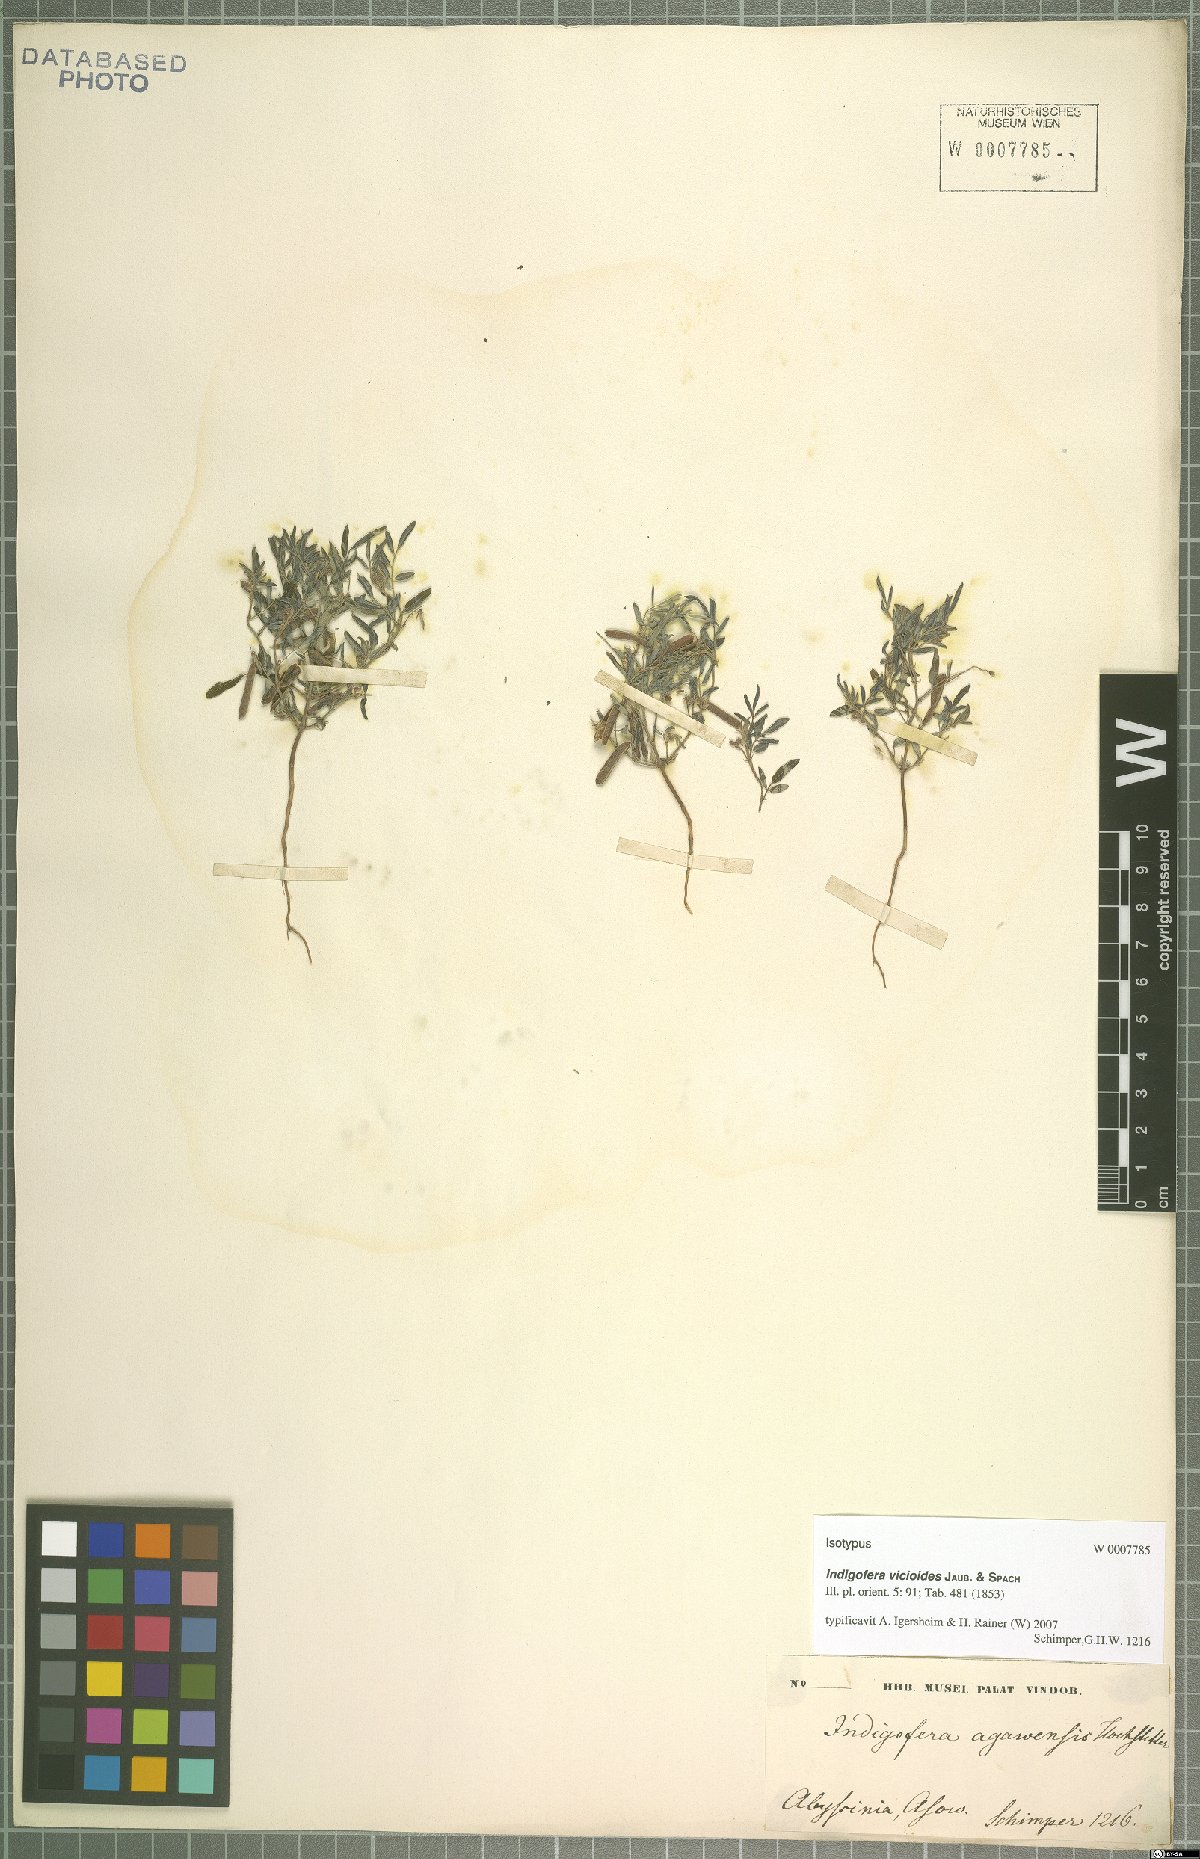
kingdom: Plantae
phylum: Tracheophyta
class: Magnoliopsida
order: Fabales
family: Fabaceae
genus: Indigofera
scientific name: Indigofera vicioides
